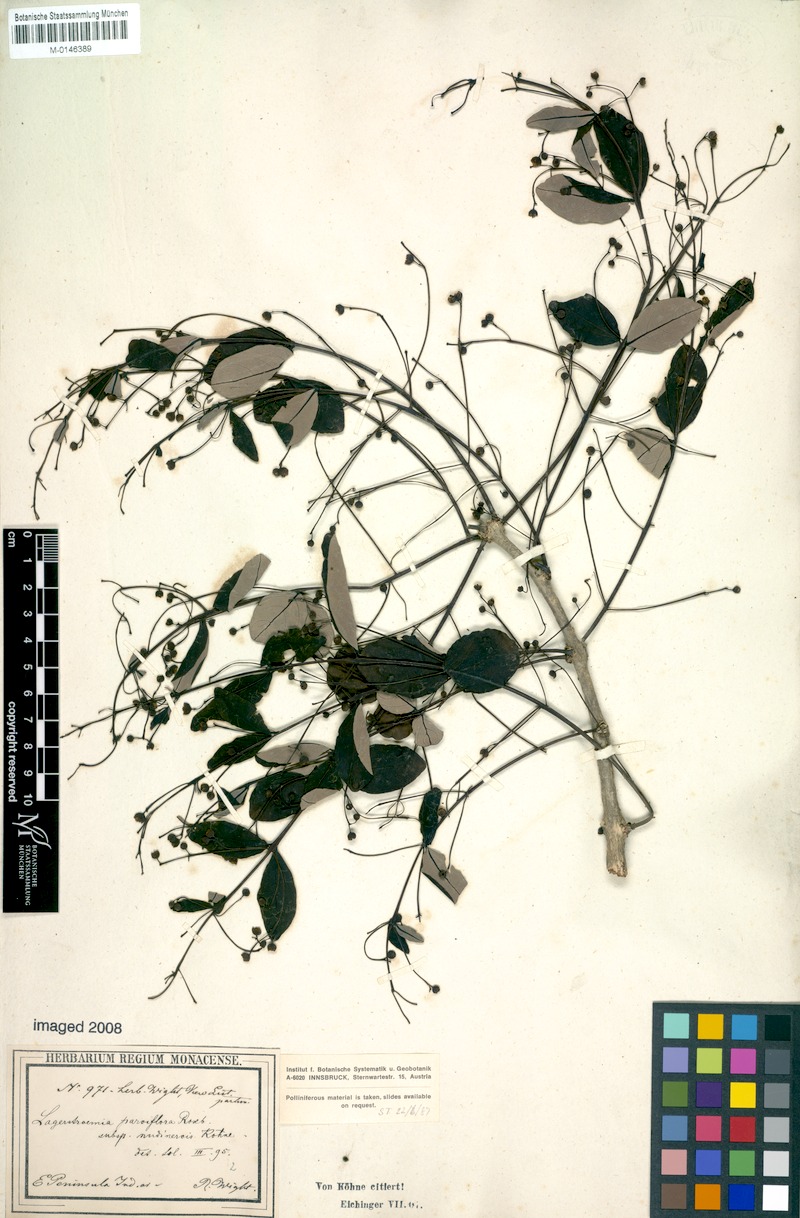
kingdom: Plantae
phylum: Tracheophyta
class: Magnoliopsida
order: Myrtales
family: Lythraceae
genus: Lagerstroemia
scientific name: Lagerstroemia parviflora
